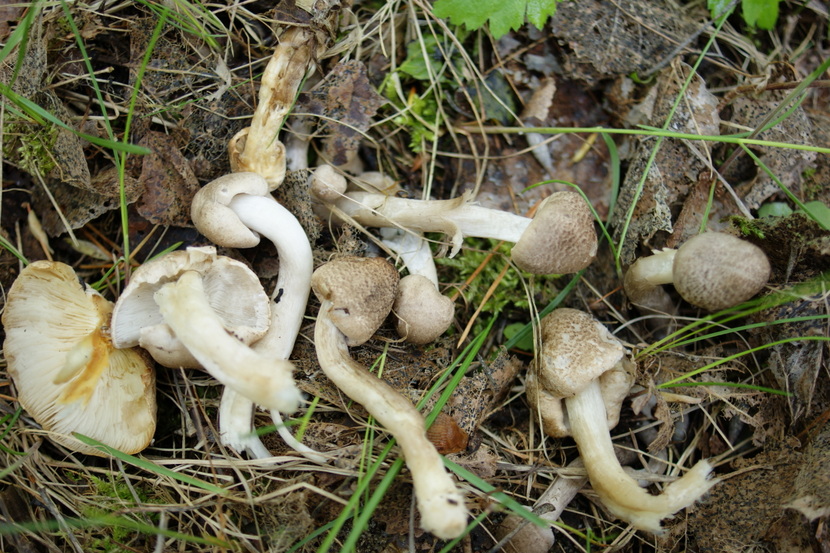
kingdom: Fungi
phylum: Basidiomycota
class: Agaricomycetes
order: Agaricales
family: Tricholomataceae
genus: Tricholoma
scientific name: Tricholoma argyraceum
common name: spids ridderhat
